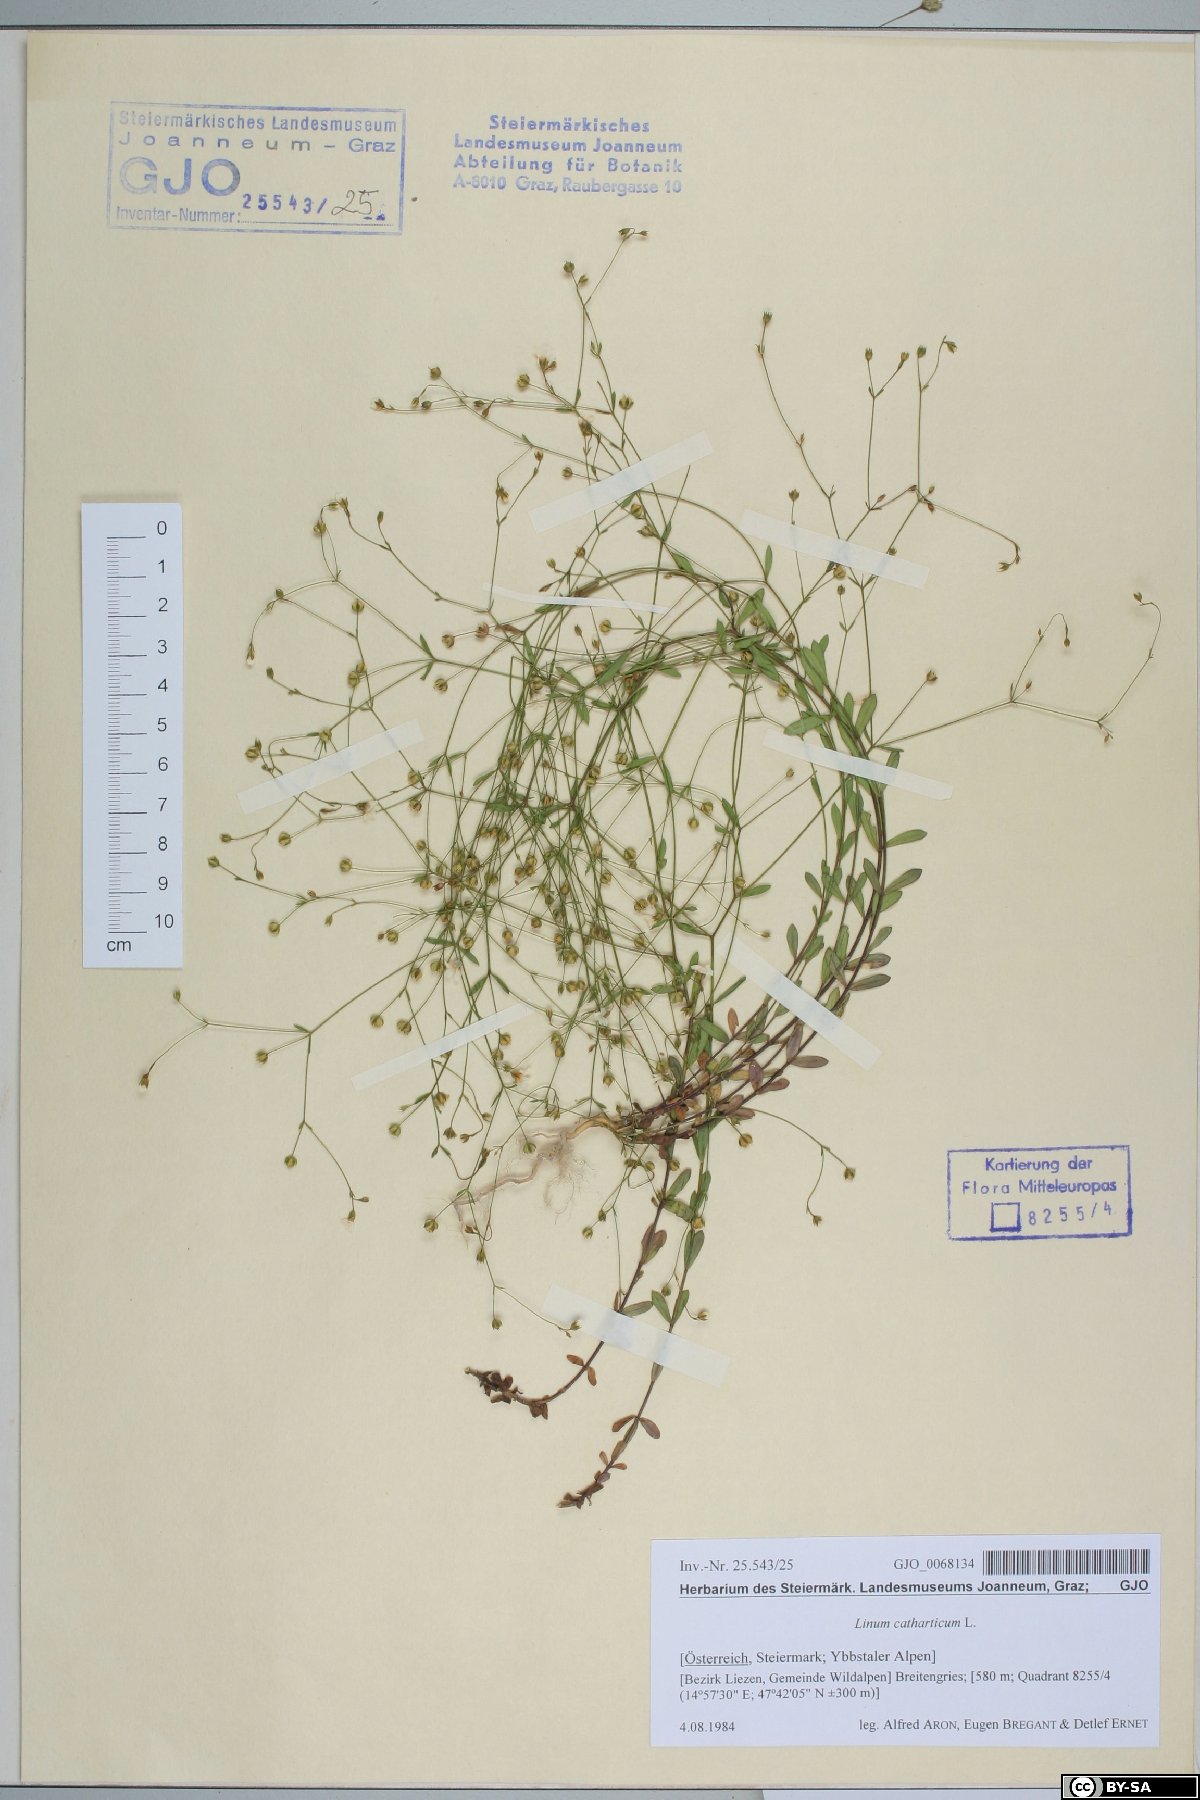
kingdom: Plantae
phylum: Tracheophyta
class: Magnoliopsida
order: Malpighiales
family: Linaceae
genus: Linum
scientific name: Linum catharticum
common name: Fairy flax
